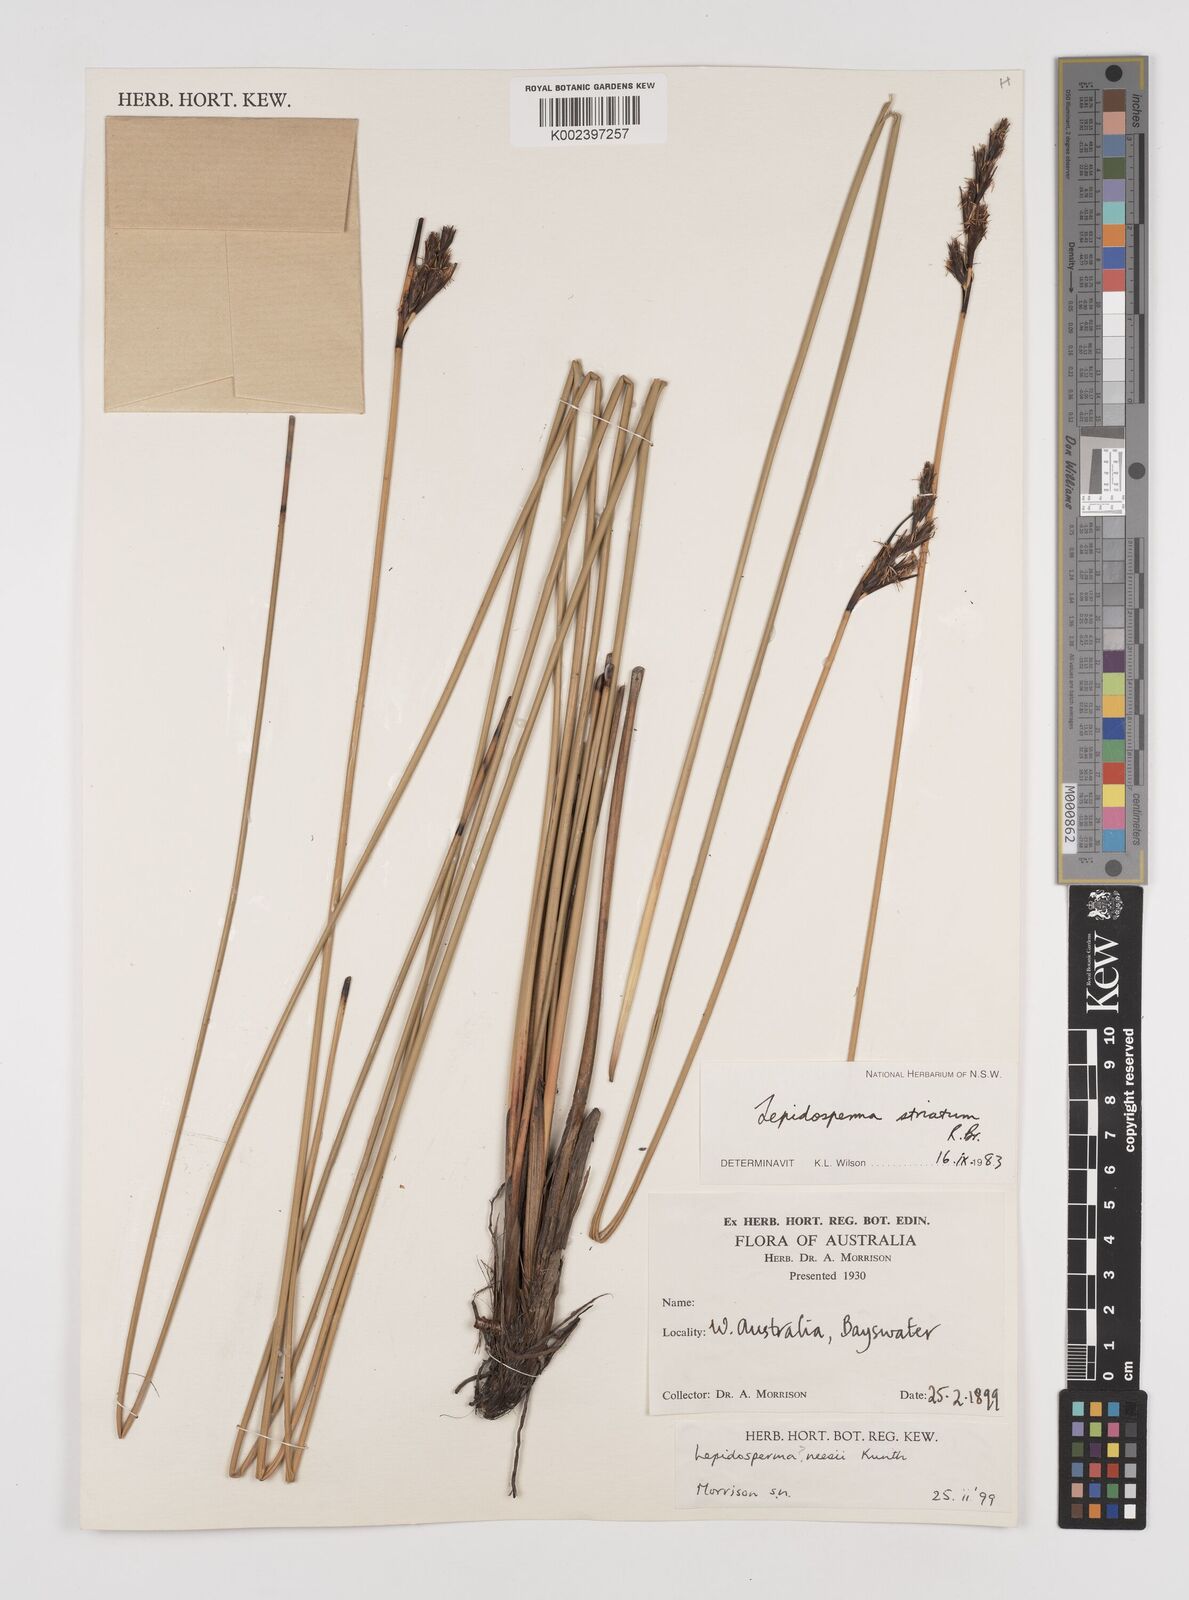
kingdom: Plantae
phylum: Tracheophyta
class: Liliopsida
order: Poales
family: Cyperaceae
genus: Lepidosperma
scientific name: Lepidosperma striatum
